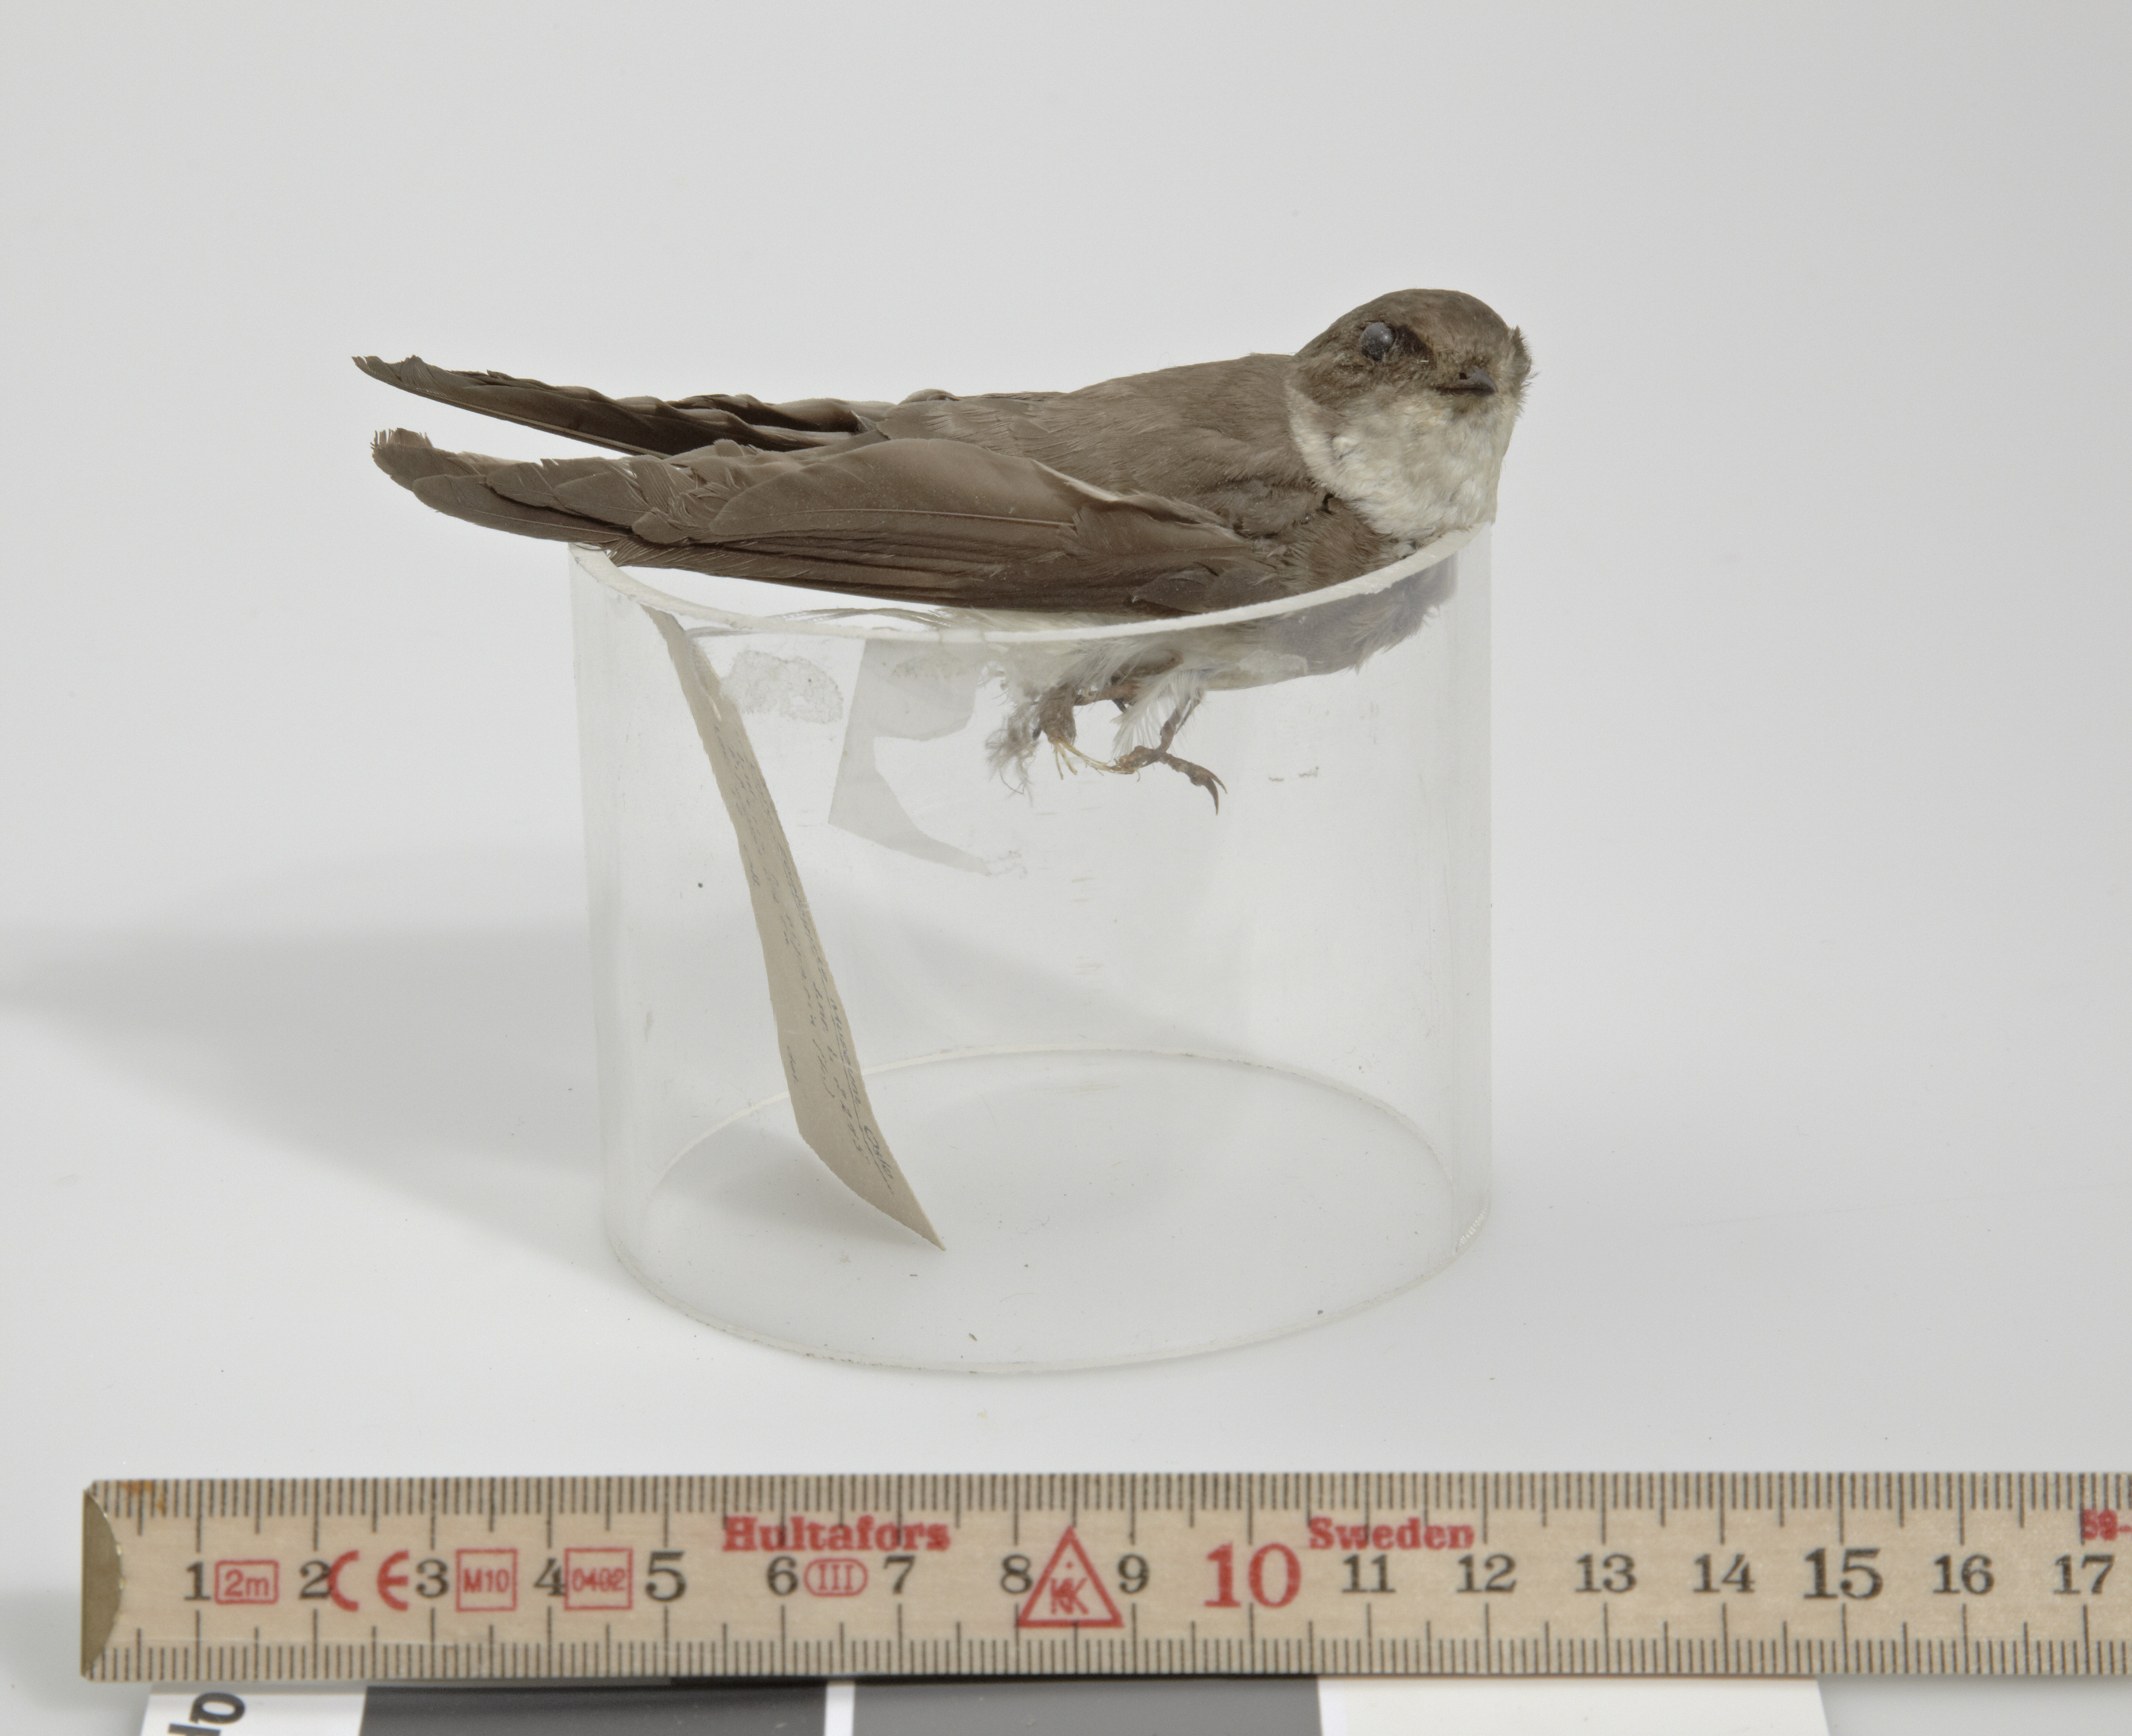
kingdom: Animalia
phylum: Chordata
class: Aves
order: Passeriformes
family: Hirundinidae
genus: Riparia
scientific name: Riparia riparia
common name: Sand martin
